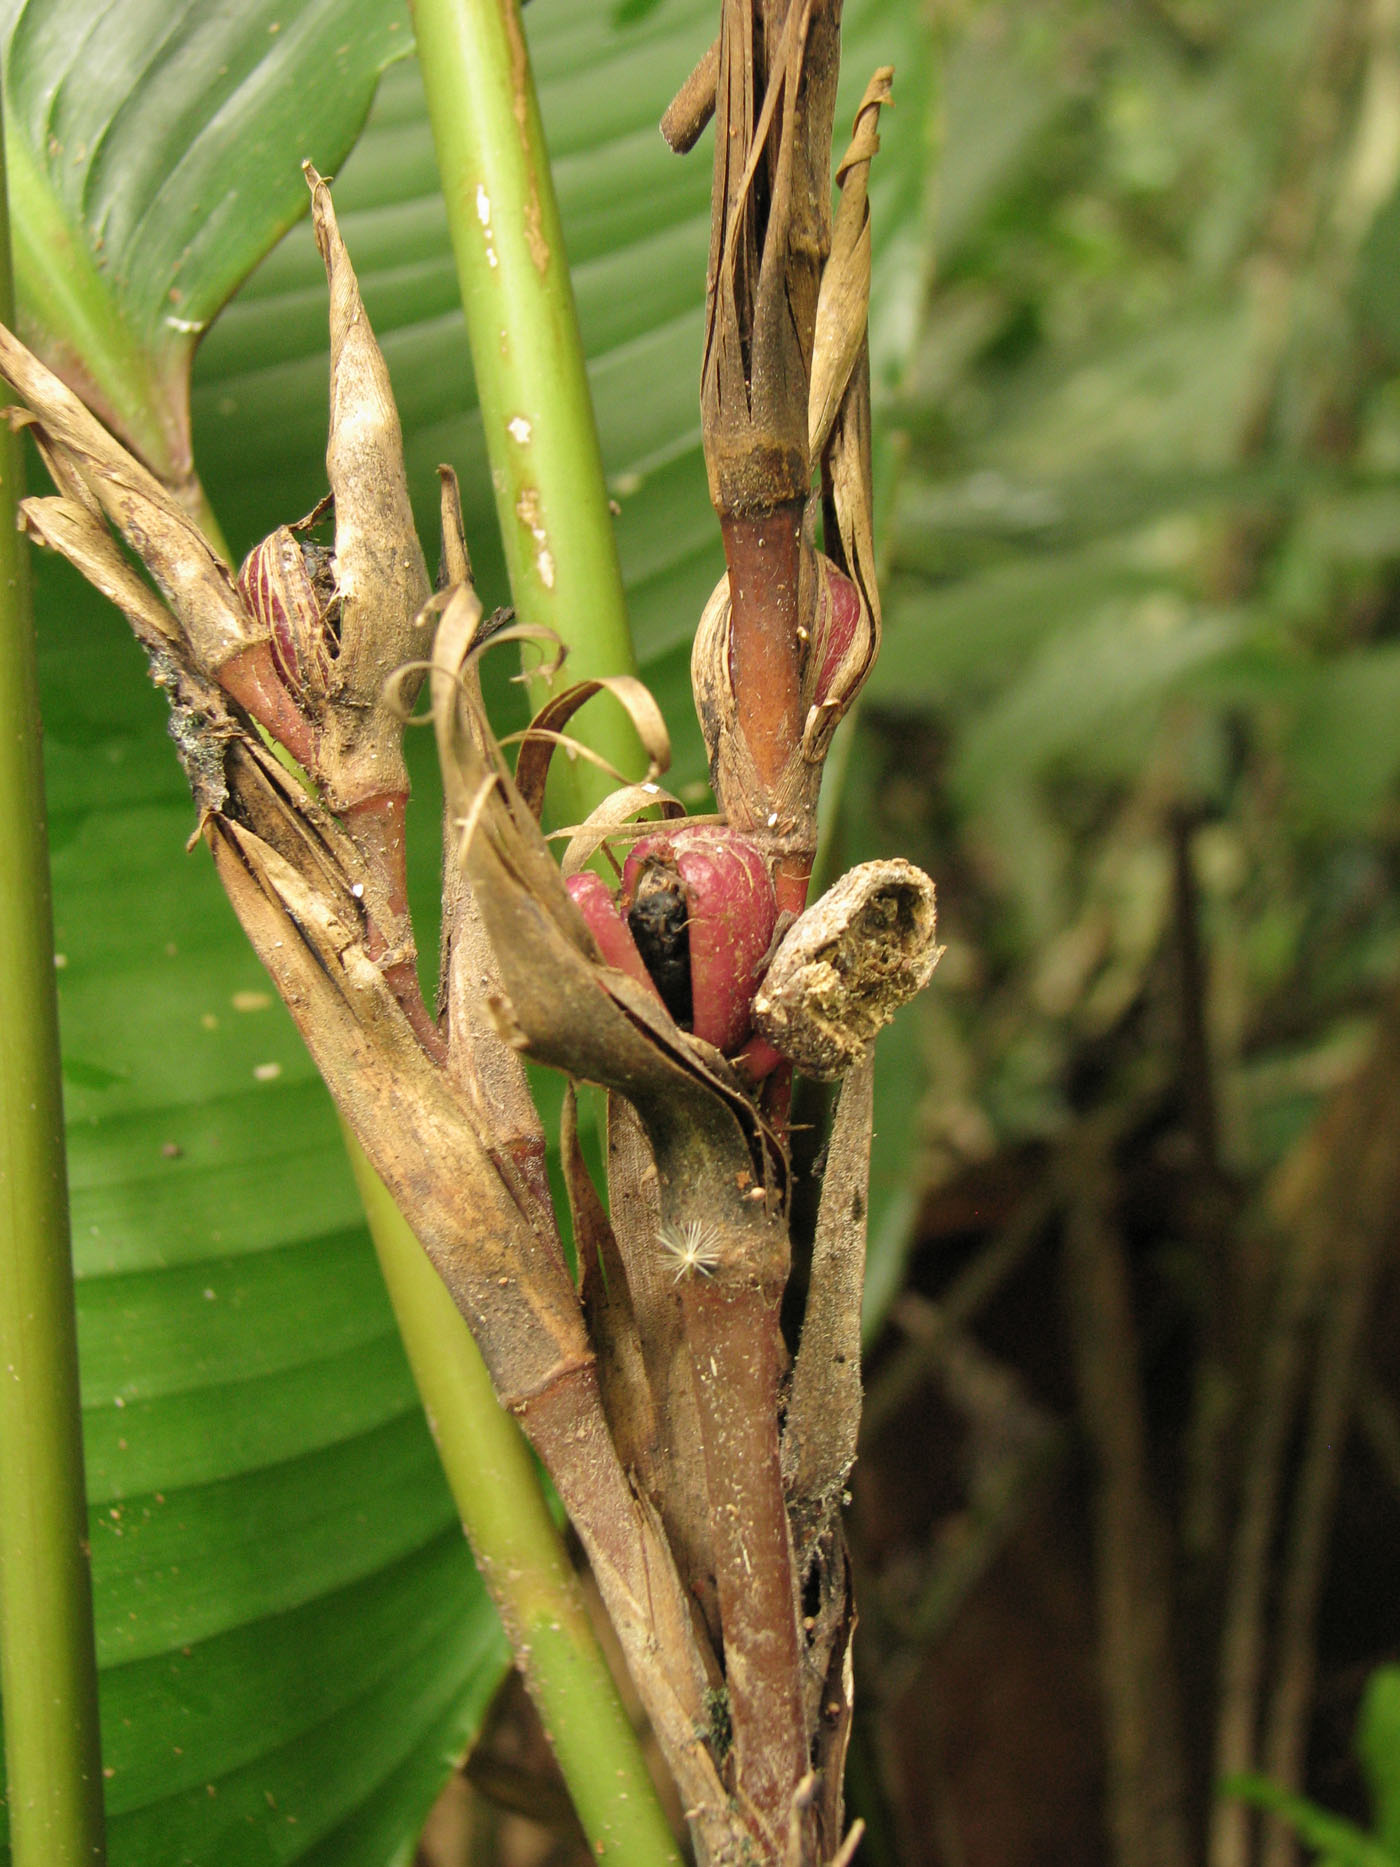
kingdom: Plantae
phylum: Tracheophyta
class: Liliopsida
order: Zingiberales
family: Marantaceae
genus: Phrynium
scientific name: Phrynium rubrum
